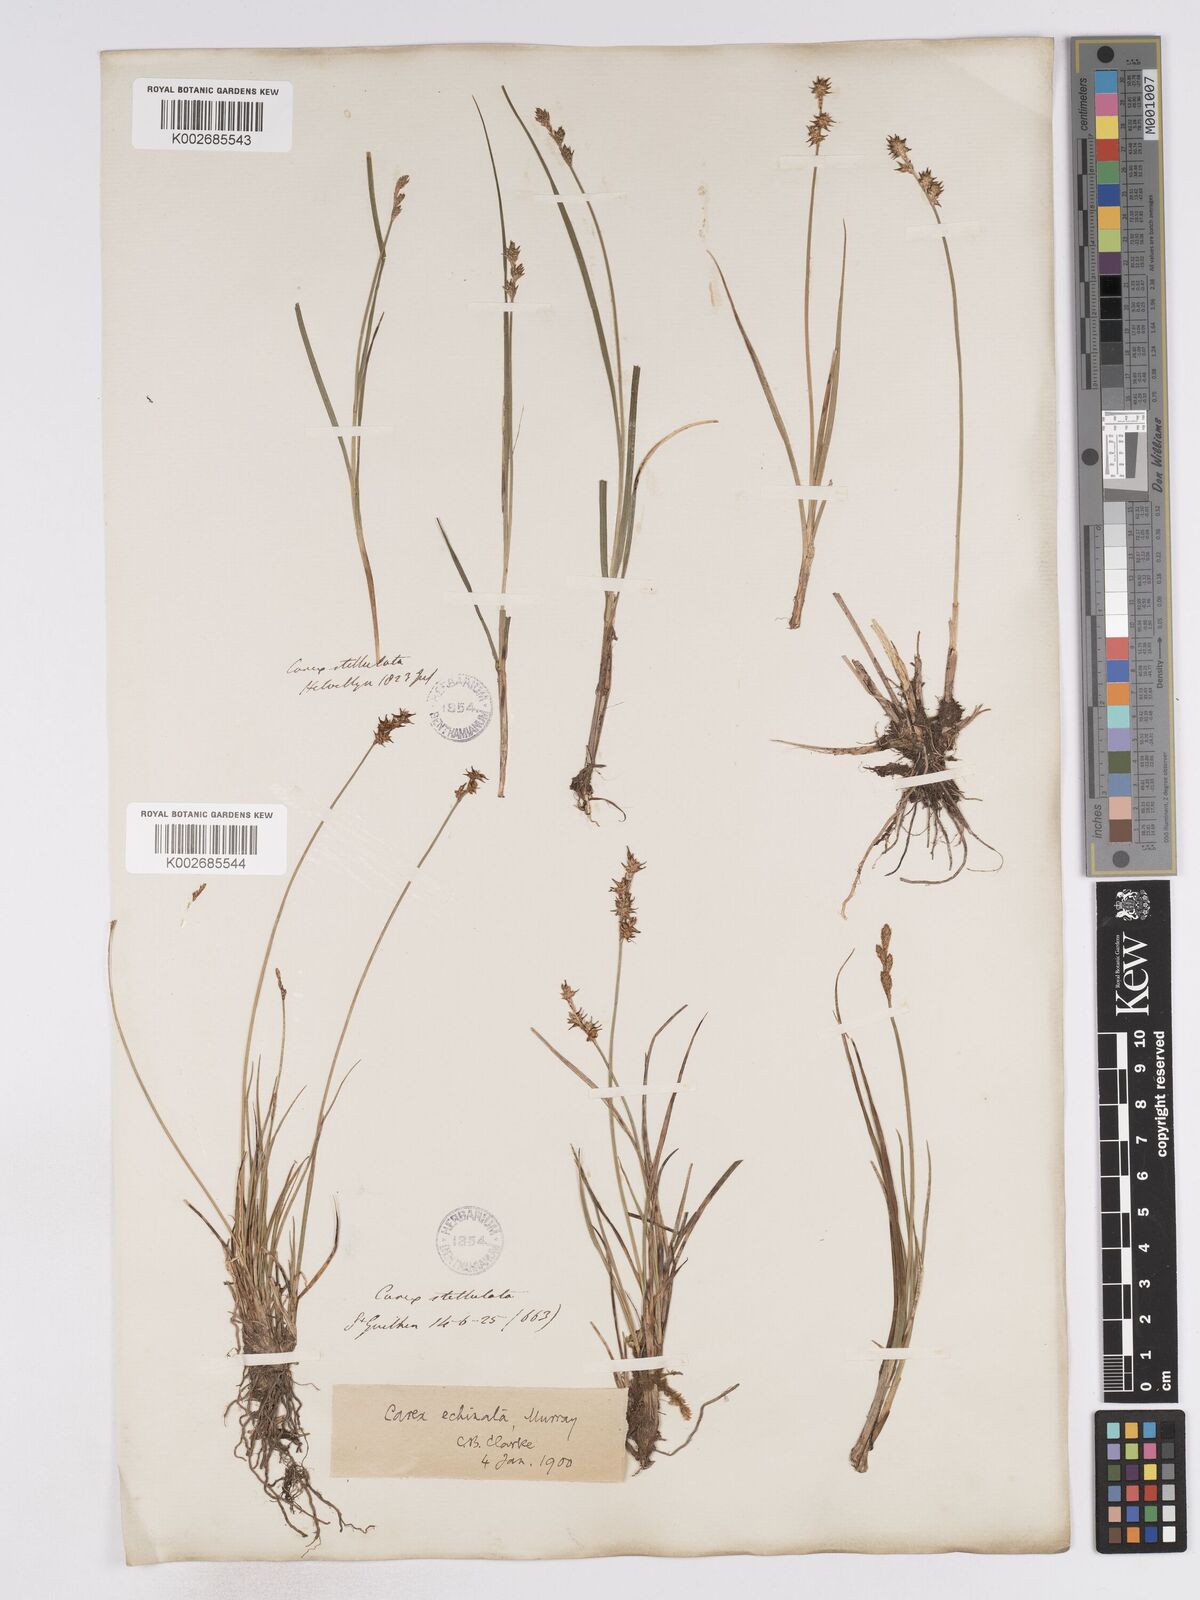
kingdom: Plantae
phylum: Tracheophyta
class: Liliopsida
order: Poales
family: Cyperaceae
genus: Carex
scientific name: Carex echinata
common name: Star sedge
